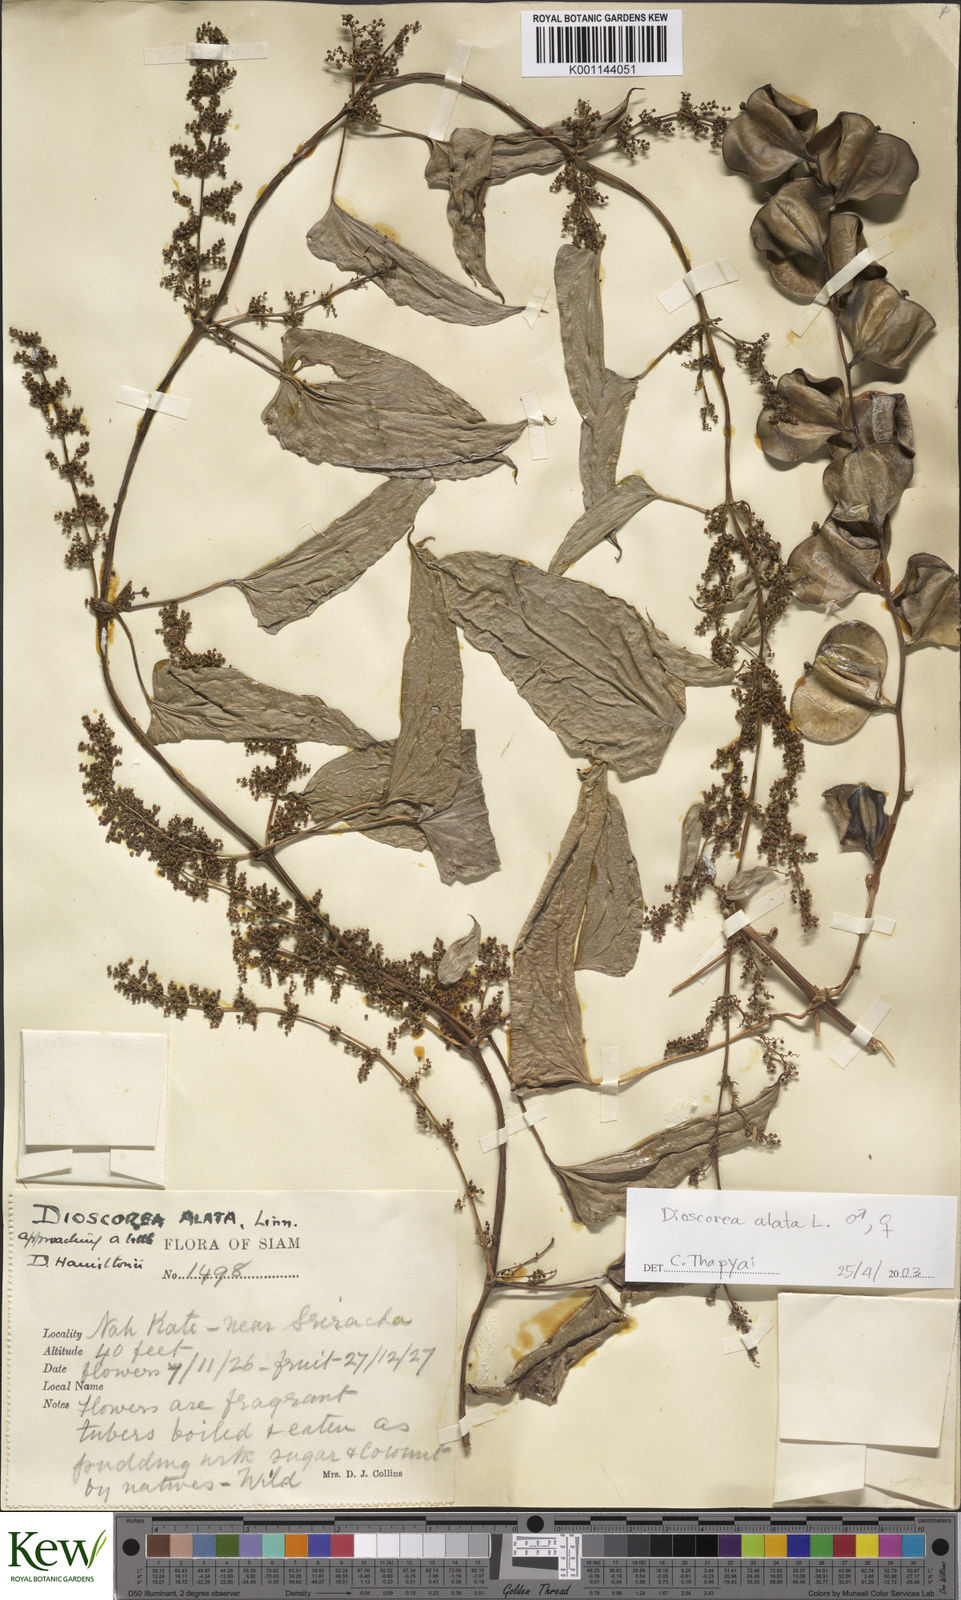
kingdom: Plantae
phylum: Tracheophyta
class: Liliopsida
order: Dioscoreales
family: Dioscoreaceae
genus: Dioscorea
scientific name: Dioscorea alata
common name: Water yam
